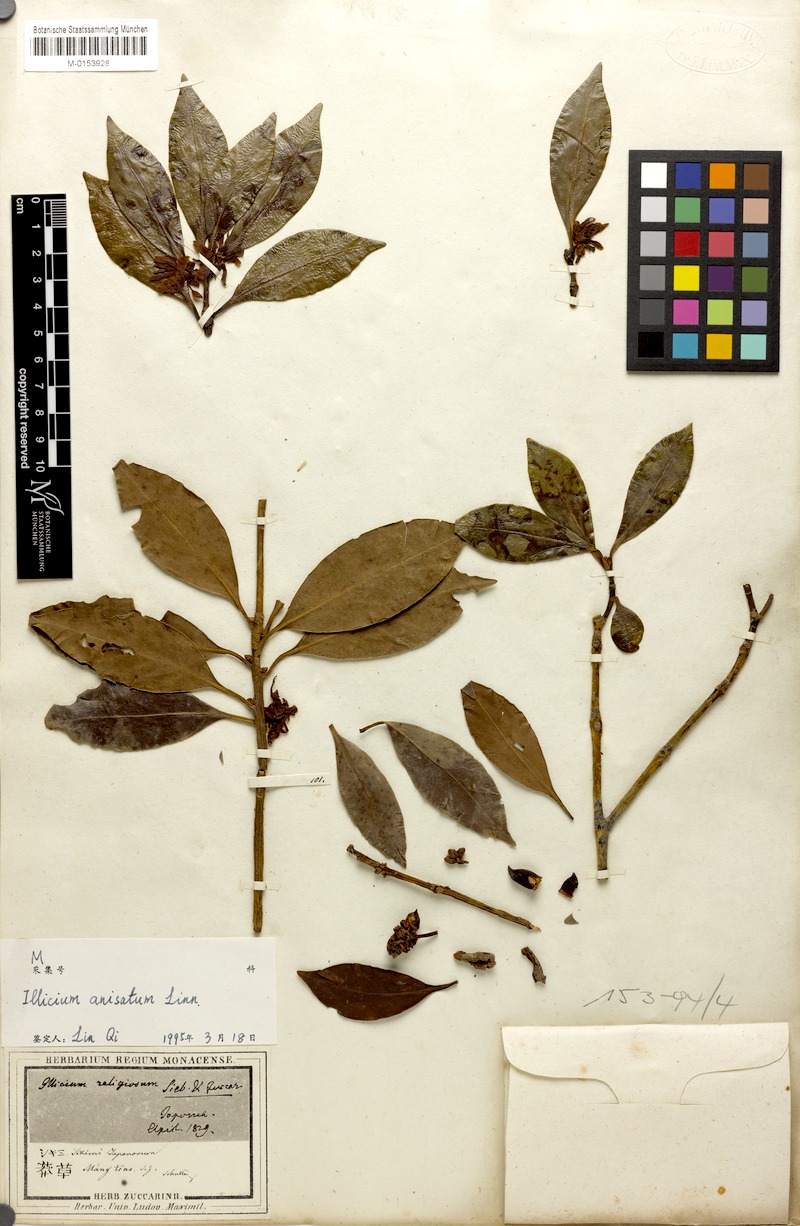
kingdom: Plantae
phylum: Tracheophyta
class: Magnoliopsida
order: Austrobaileyales
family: Schisandraceae
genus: Illicium
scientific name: Illicium anisatum
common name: Sacred anisetree
